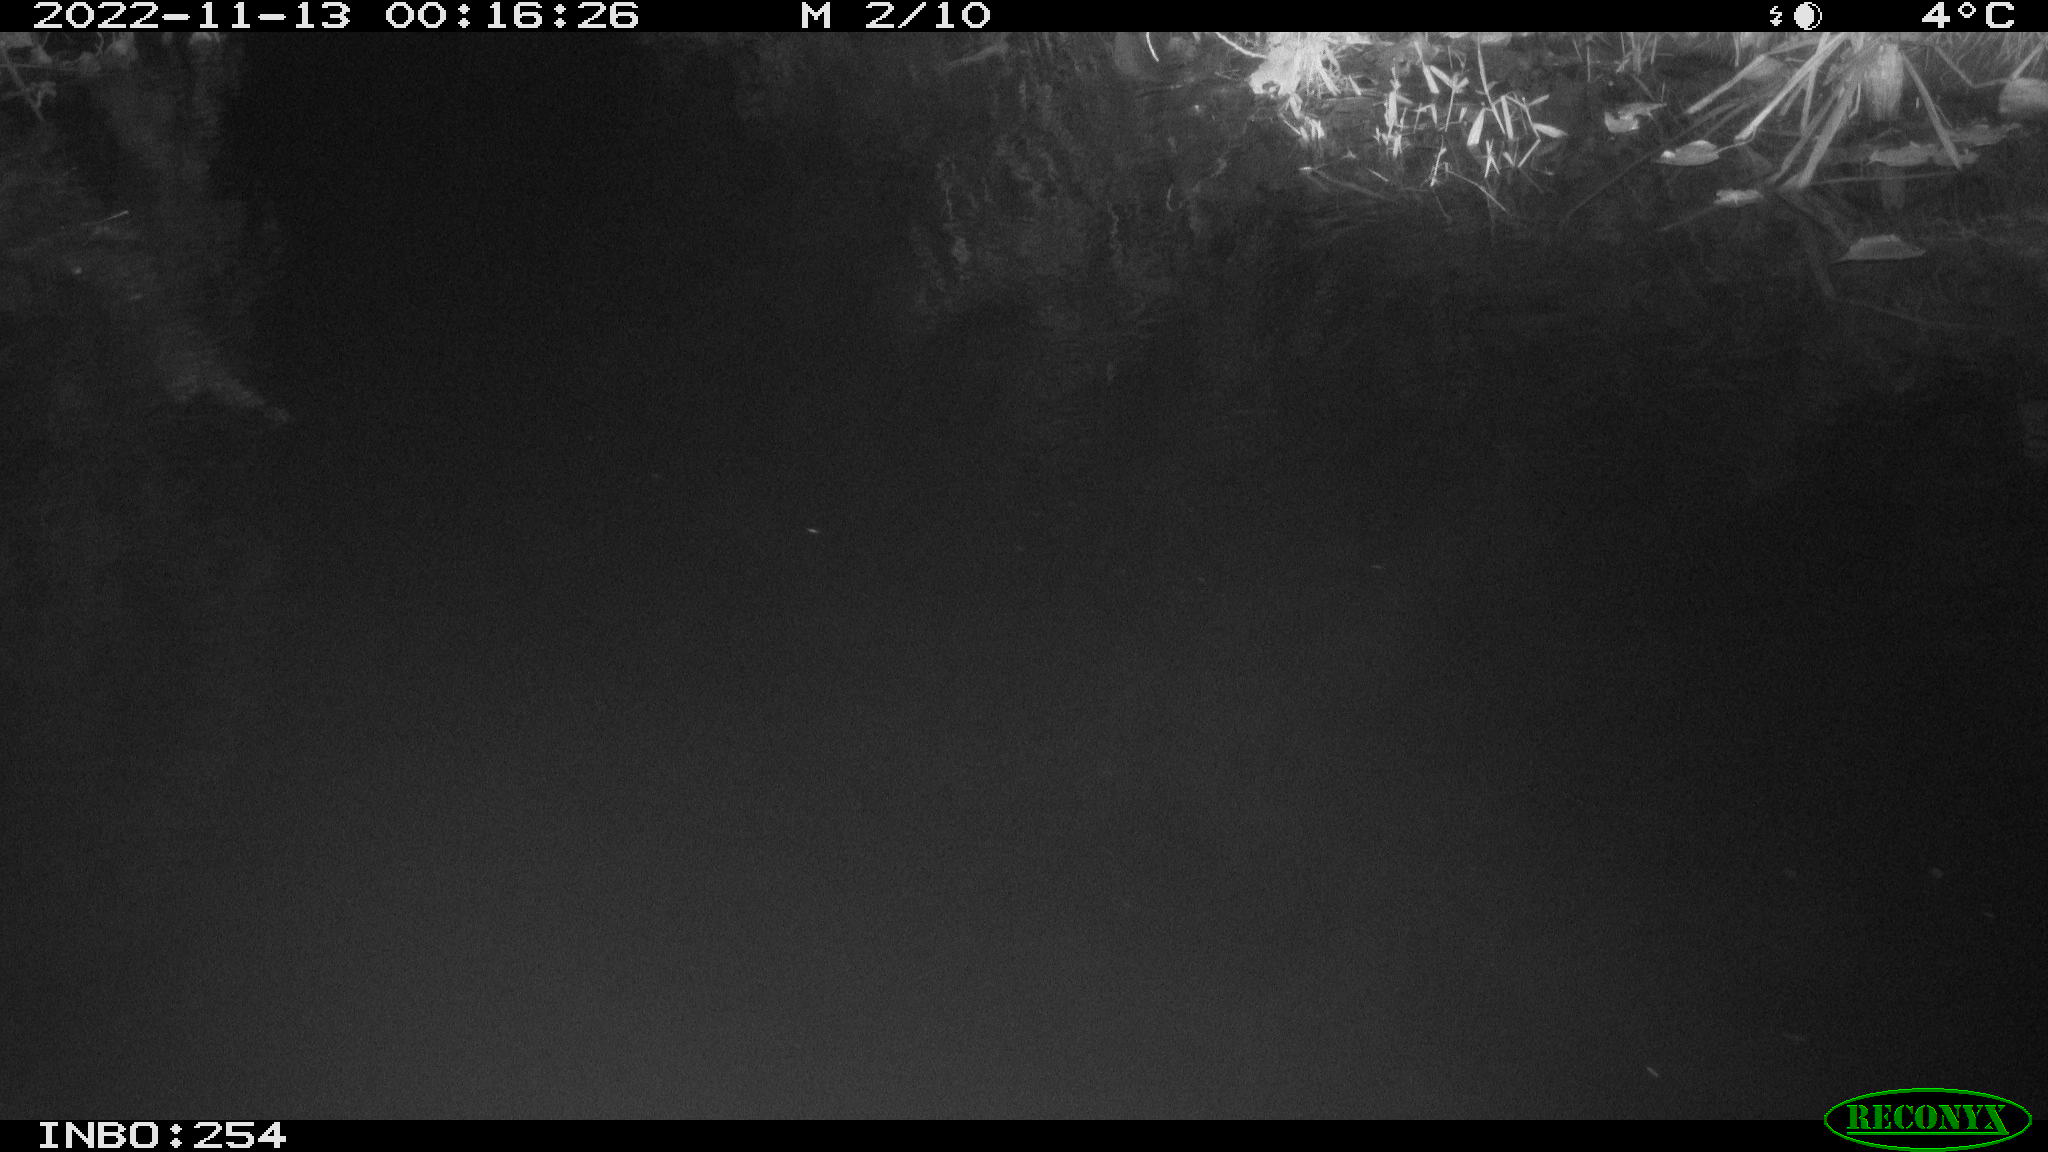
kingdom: Animalia
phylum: Chordata
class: Aves
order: Anseriformes
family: Anatidae
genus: Anas
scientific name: Anas
